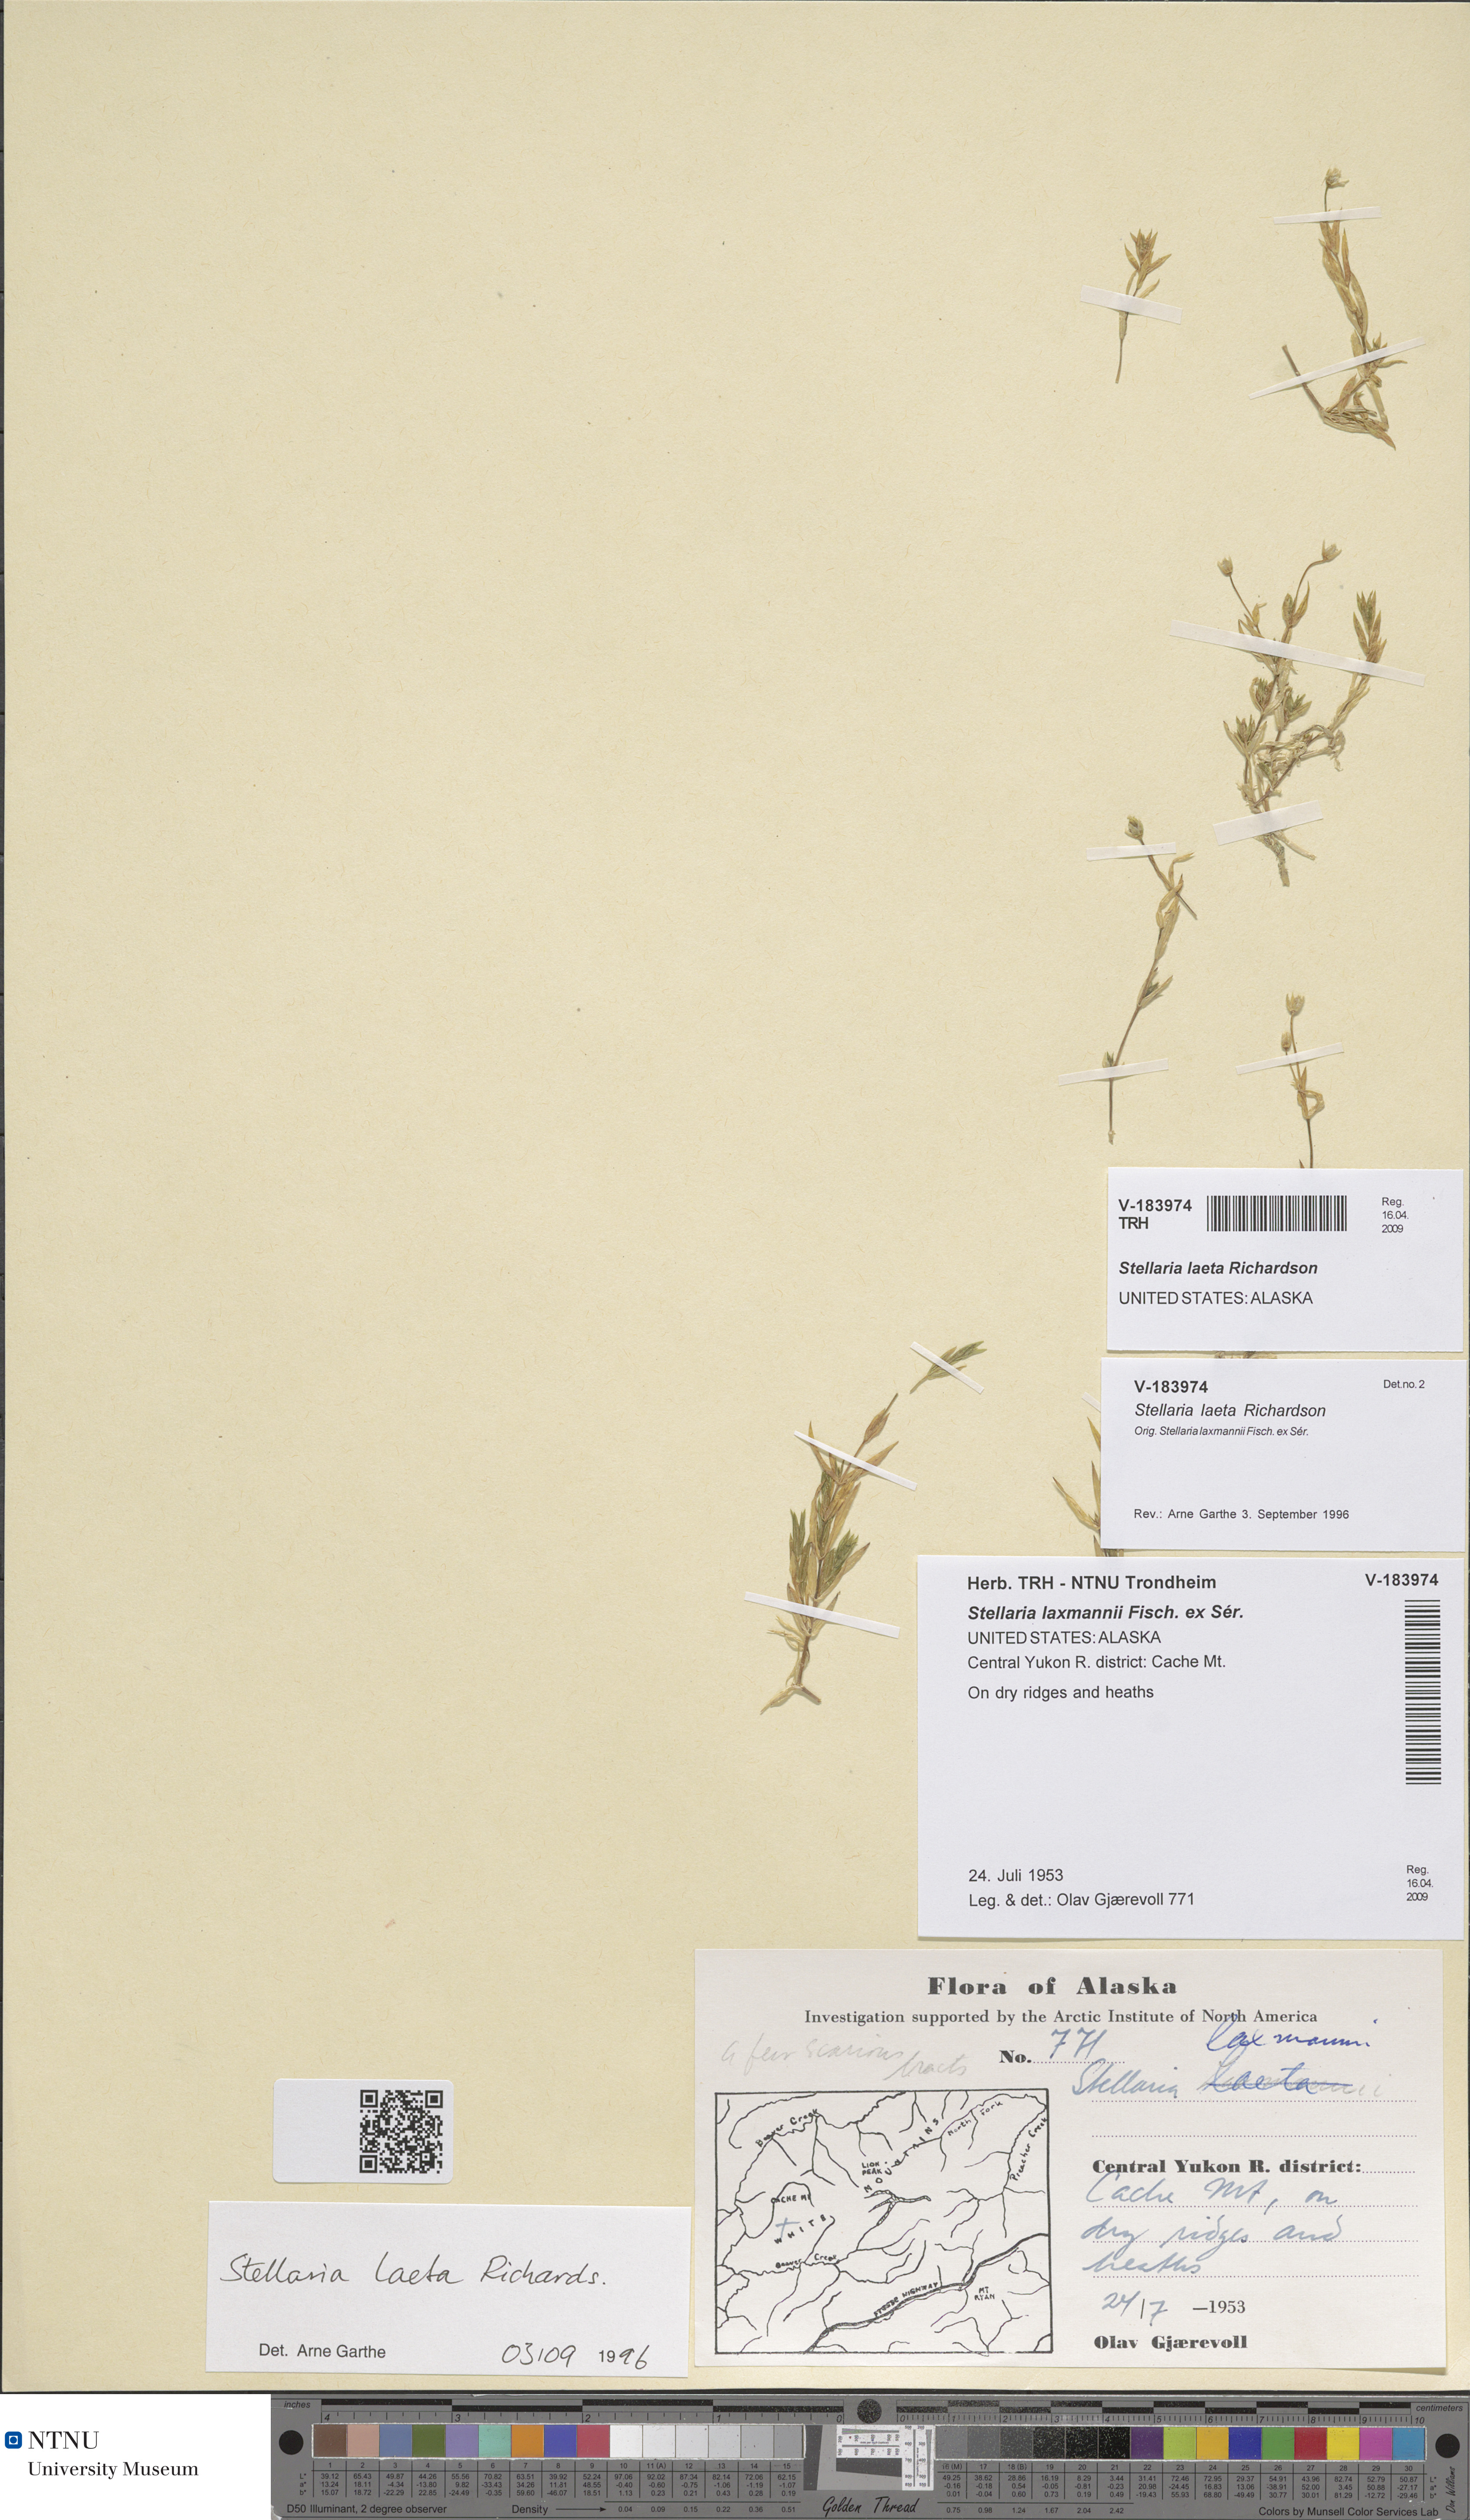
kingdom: Plantae
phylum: Tracheophyta
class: Magnoliopsida
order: Caryophyllales
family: Caryophyllaceae
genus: Stellaria
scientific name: Stellaria laeta
